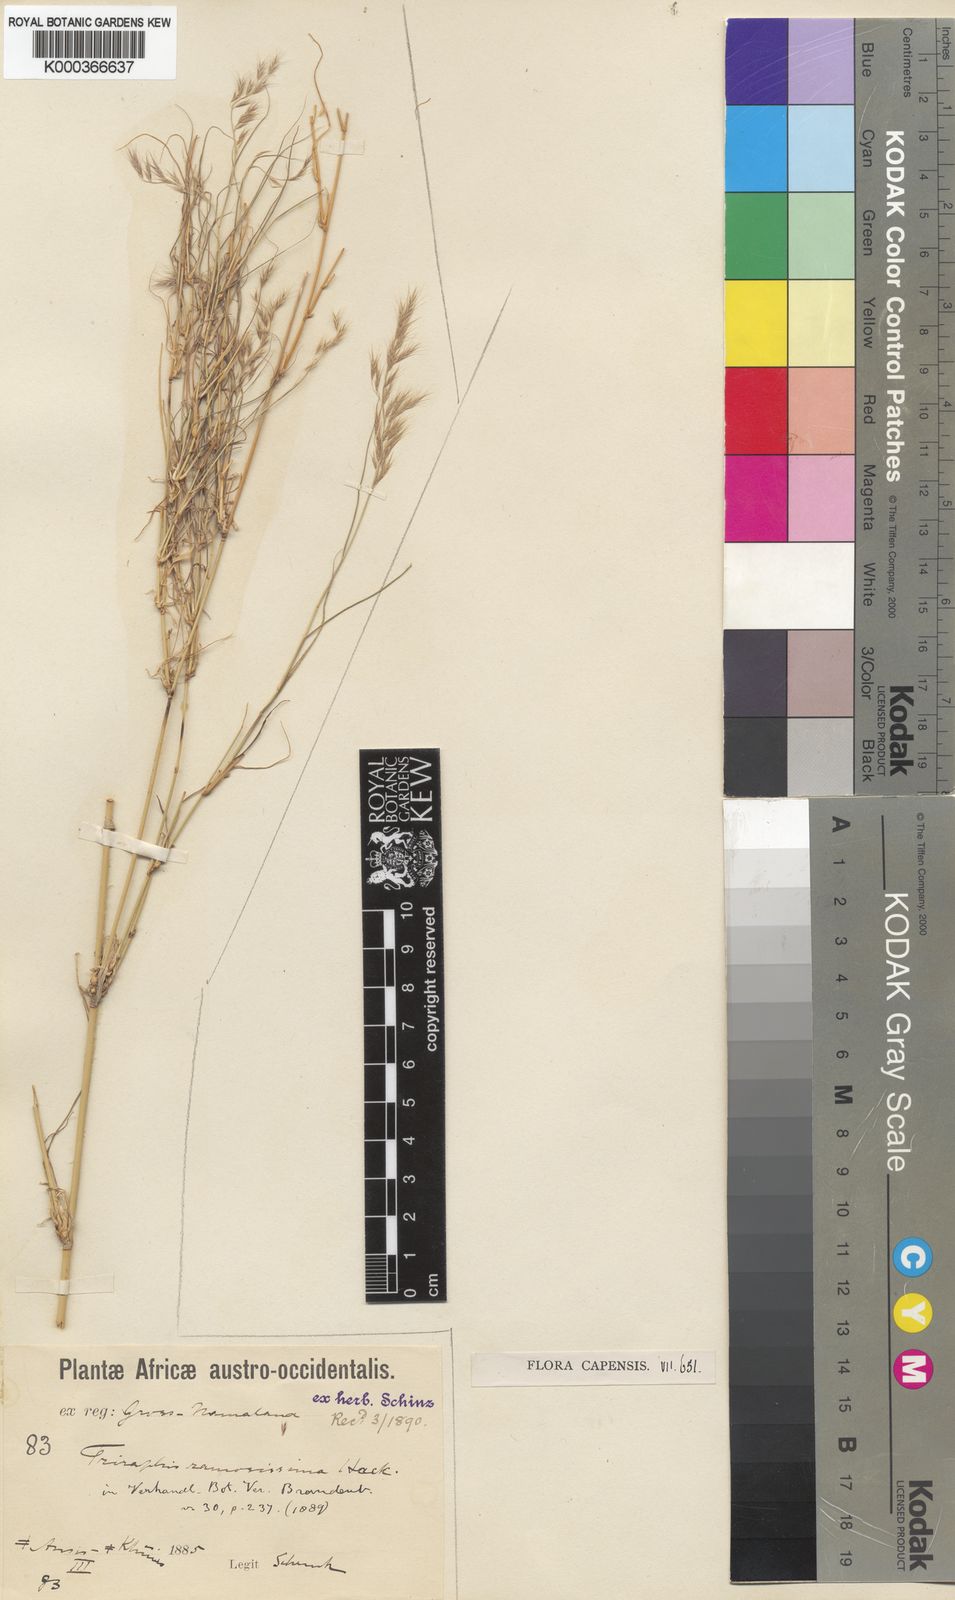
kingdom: Plantae
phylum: Tracheophyta
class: Liliopsida
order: Poales
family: Poaceae
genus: Triraphis
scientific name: Triraphis
